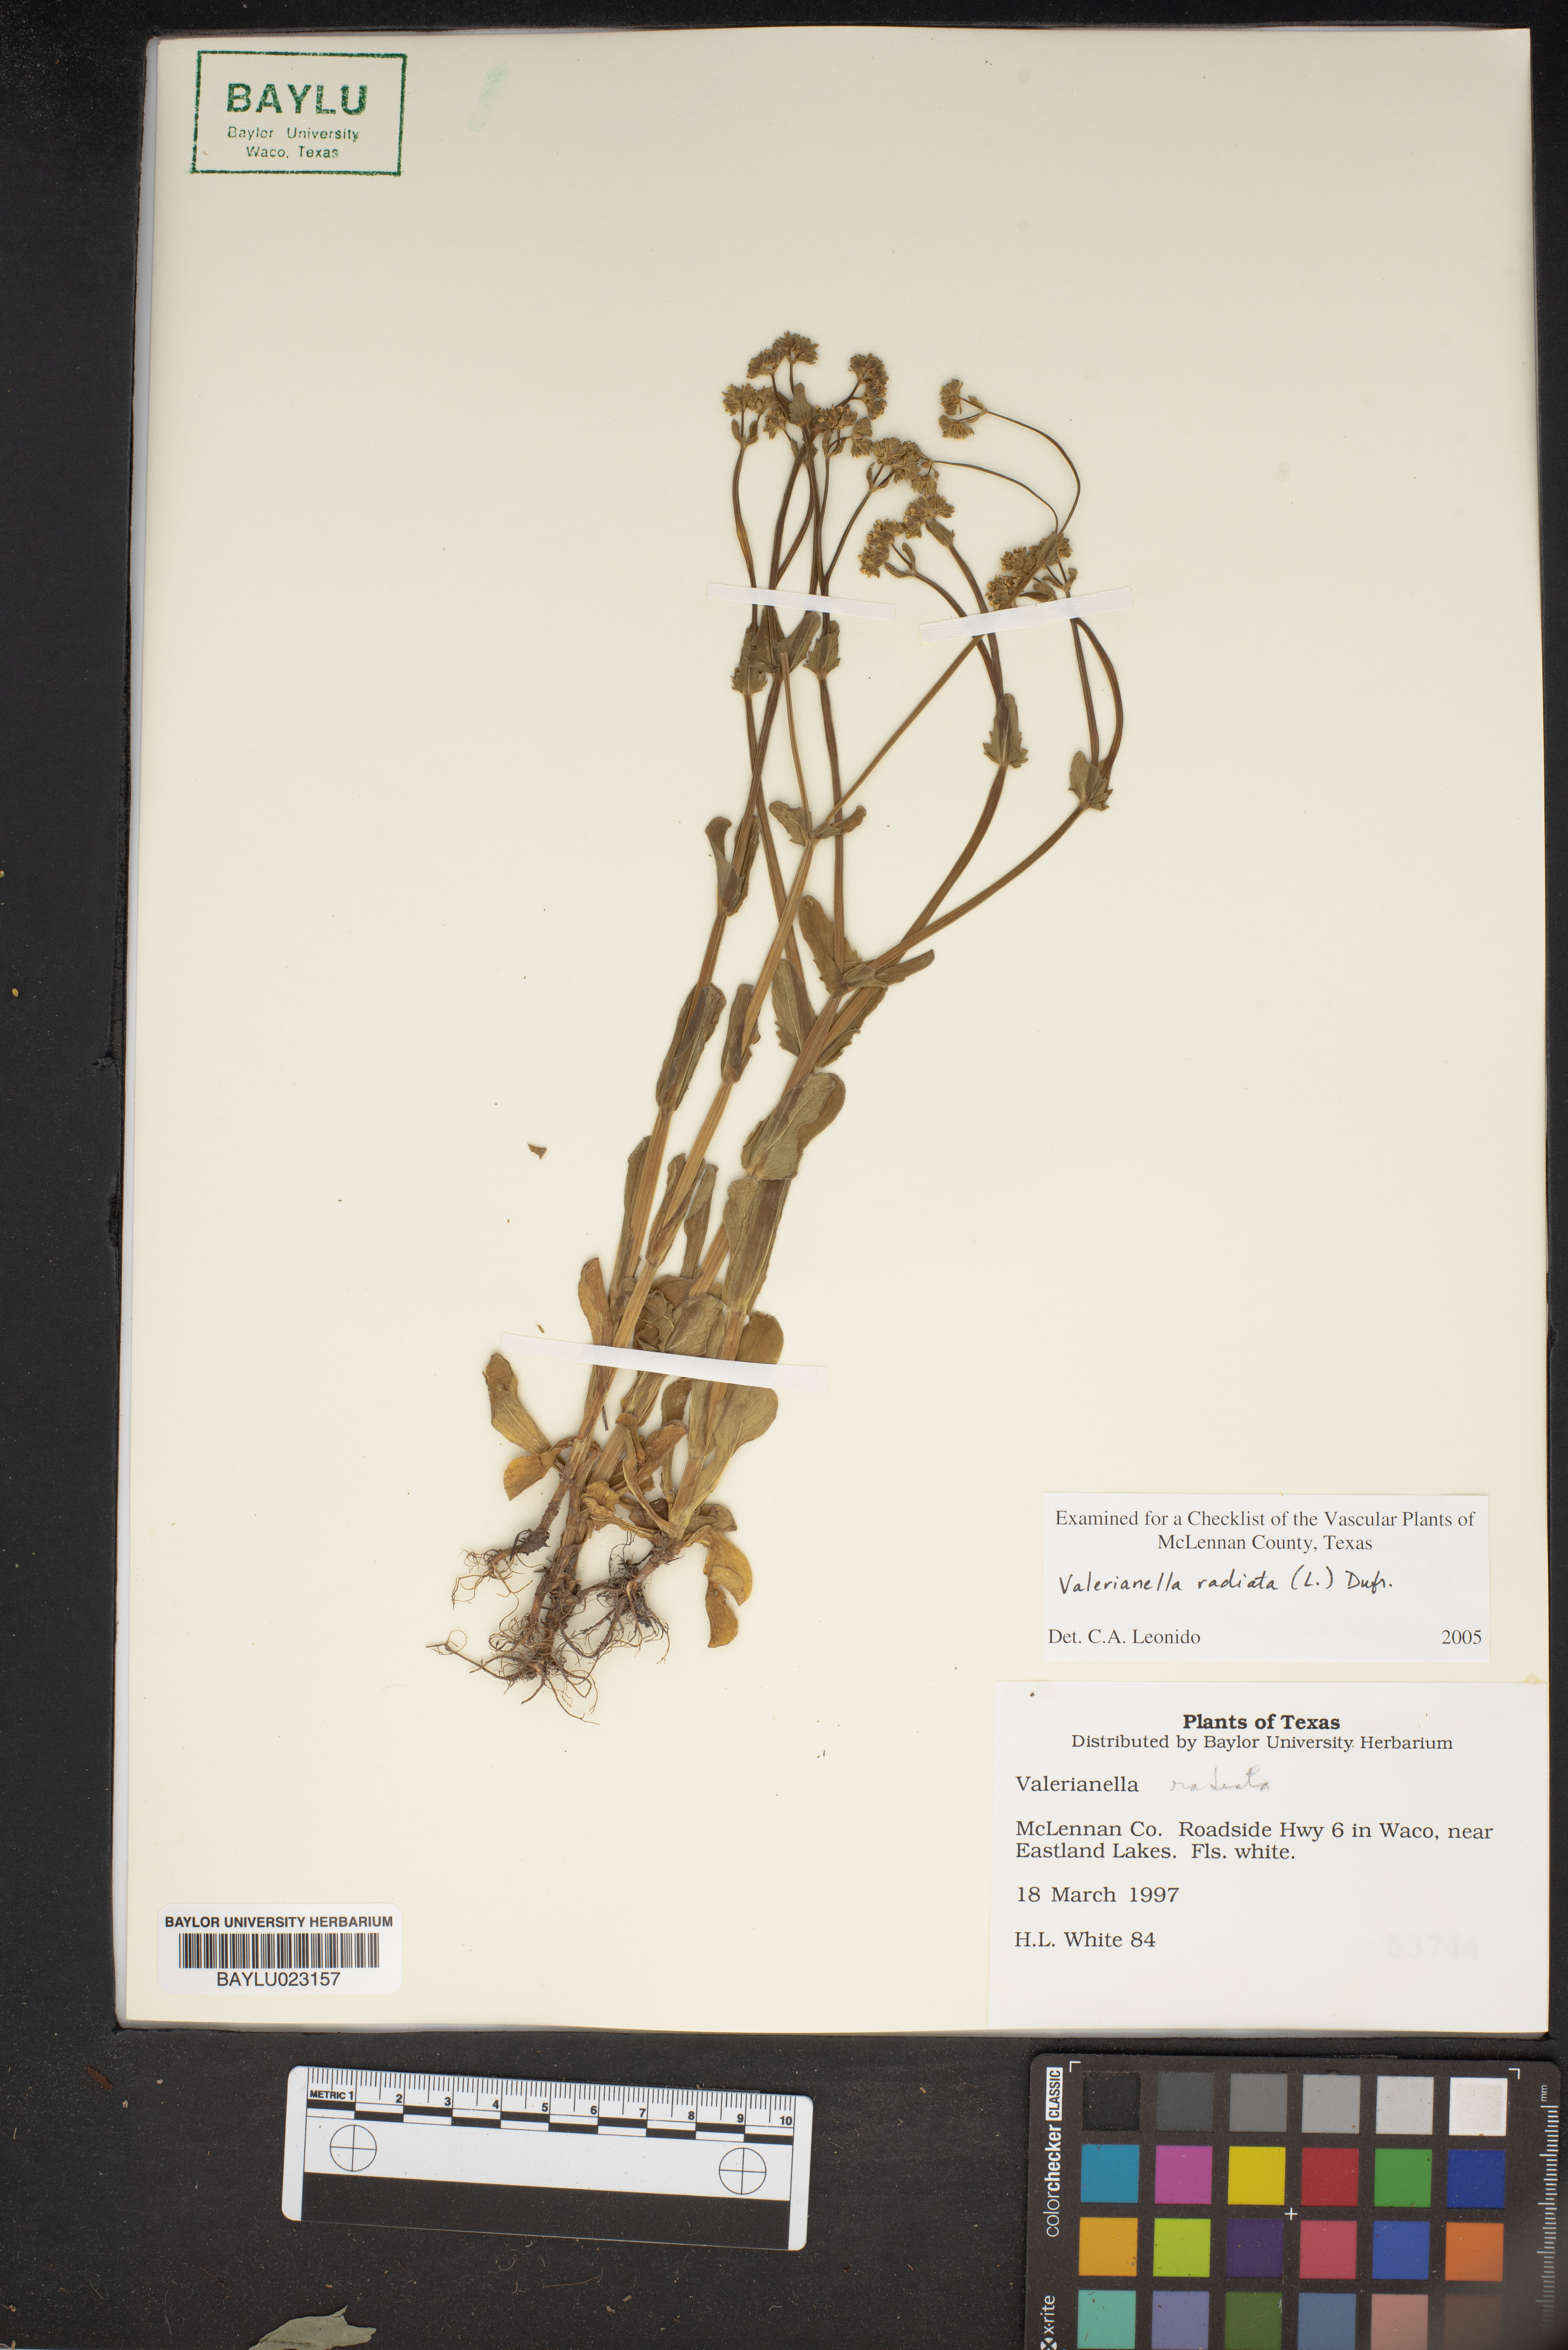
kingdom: Plantae
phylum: Tracheophyta
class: Magnoliopsida
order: Dipsacales
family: Caprifoliaceae
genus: Valerianella
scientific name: Valerianella radiata
